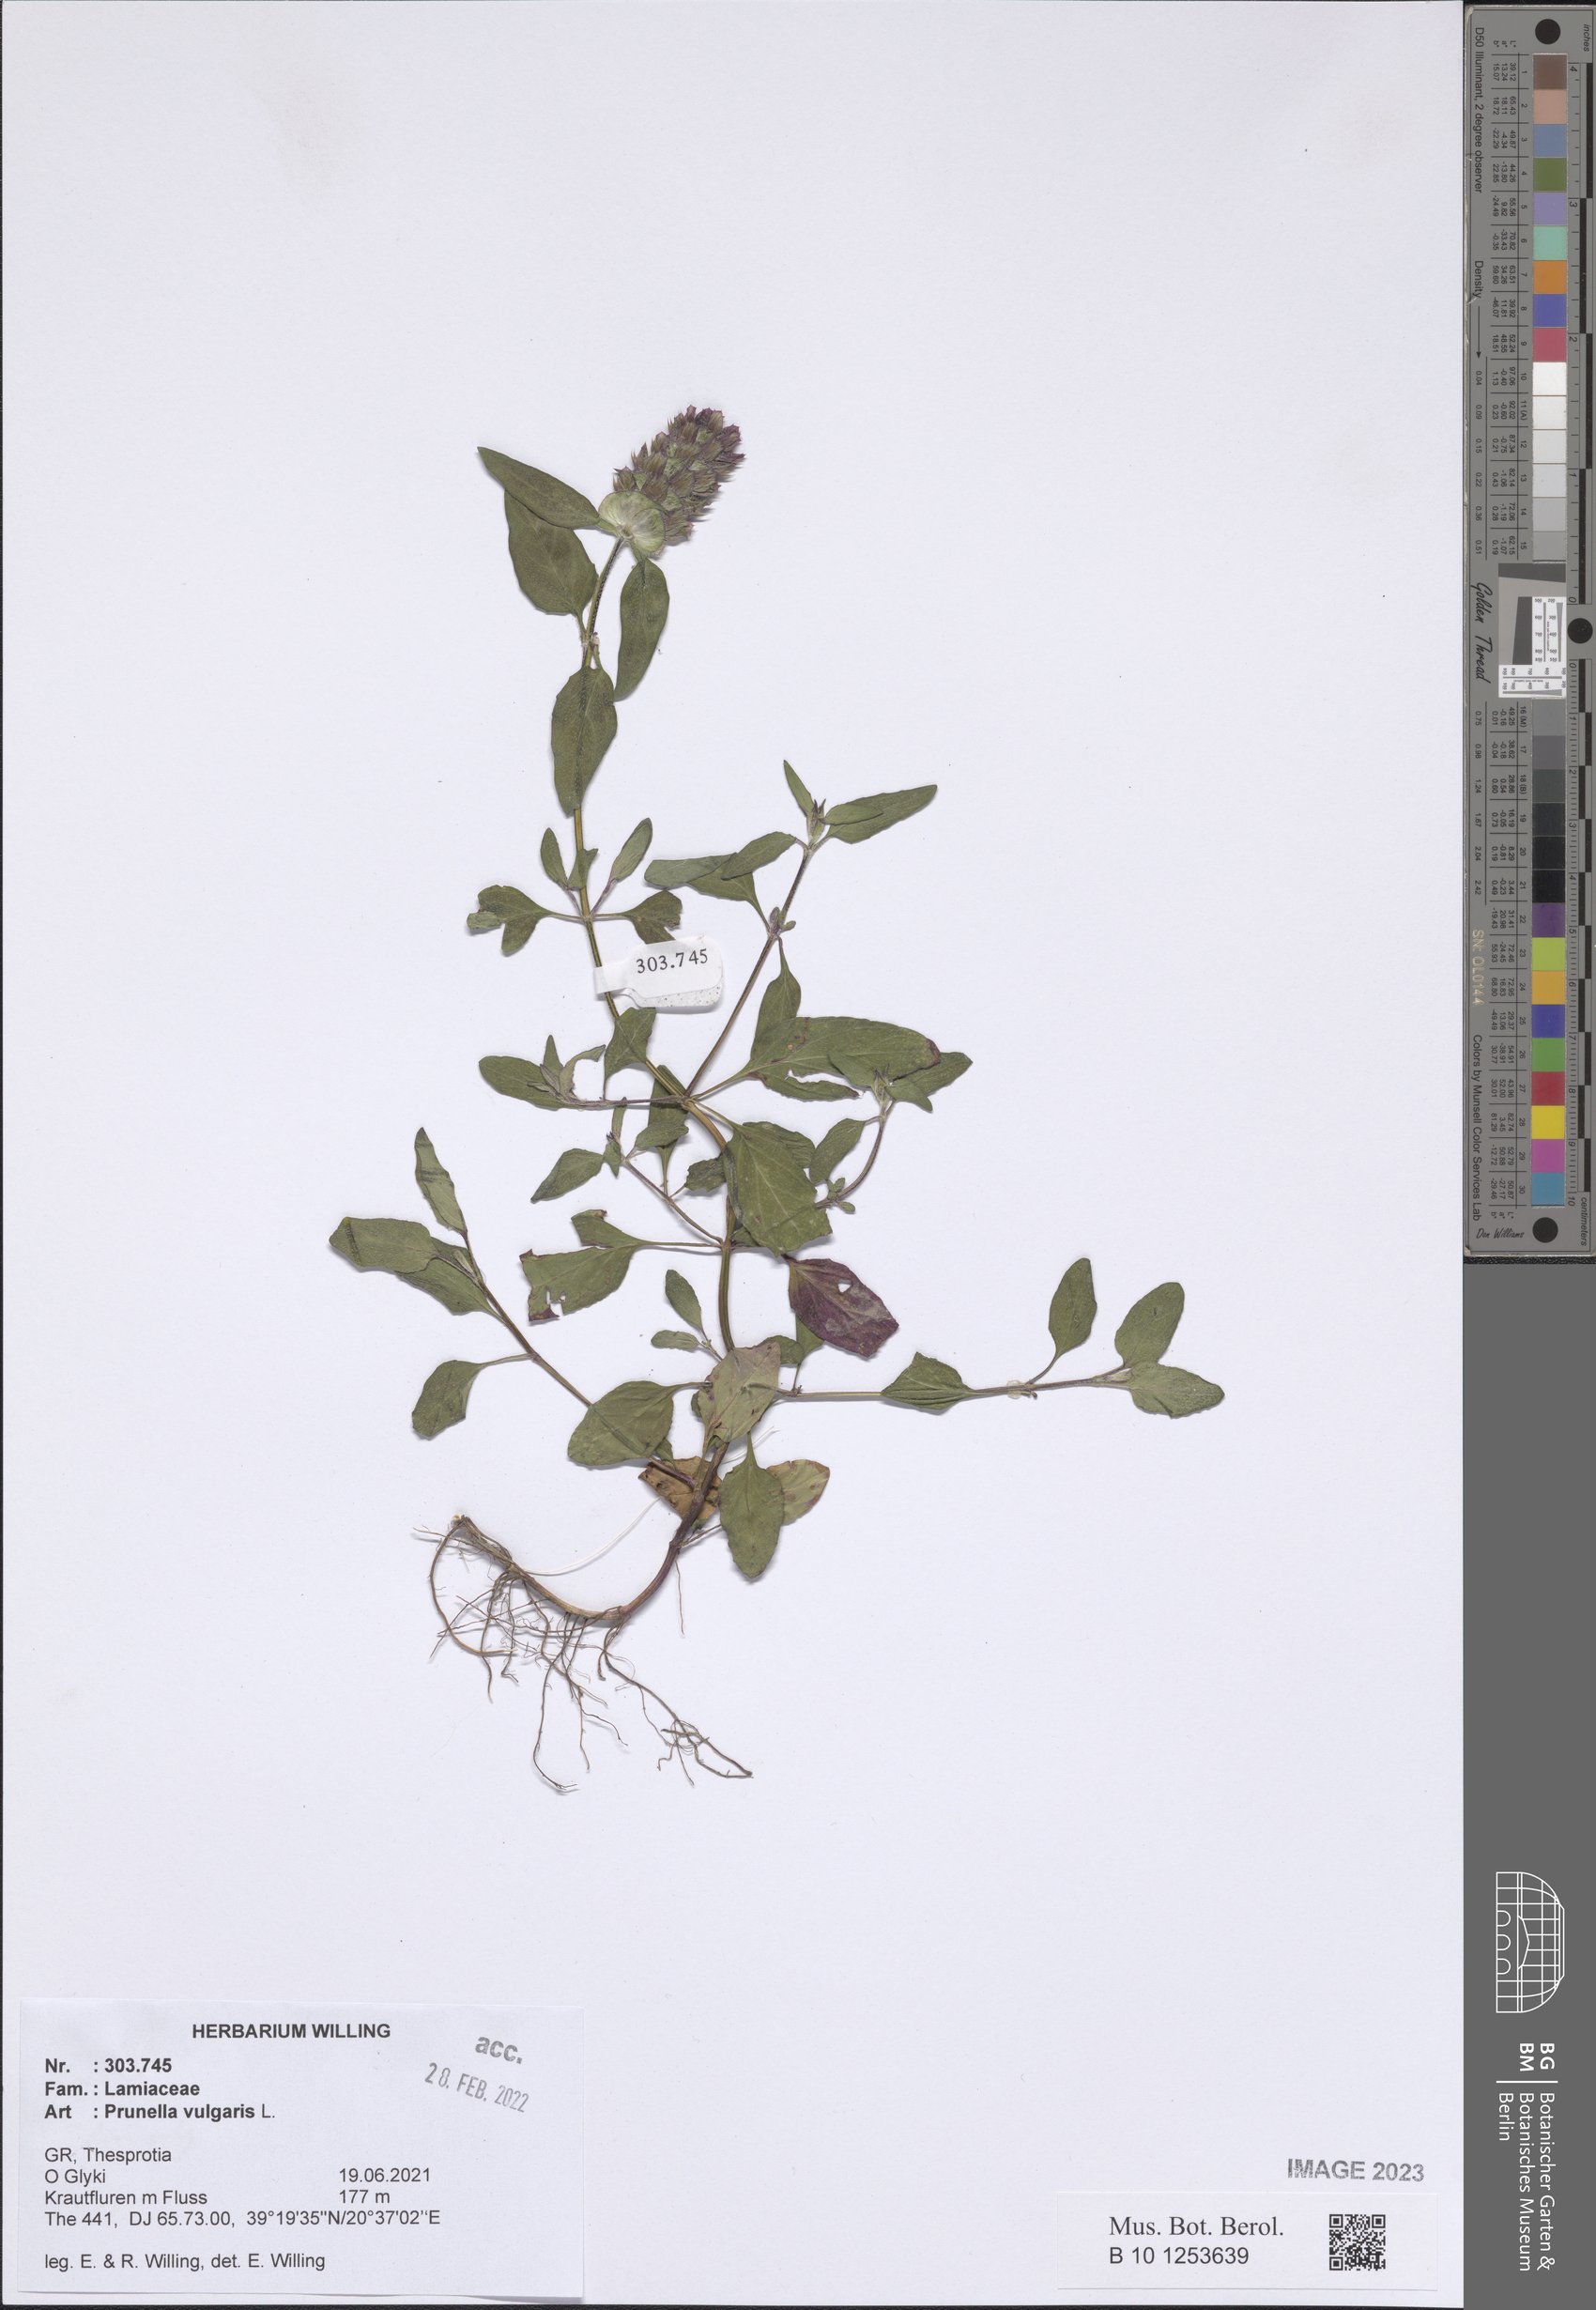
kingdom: Plantae
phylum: Tracheophyta
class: Magnoliopsida
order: Lamiales
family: Lamiaceae
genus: Prunella
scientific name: Prunella vulgaris
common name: Heal-all
